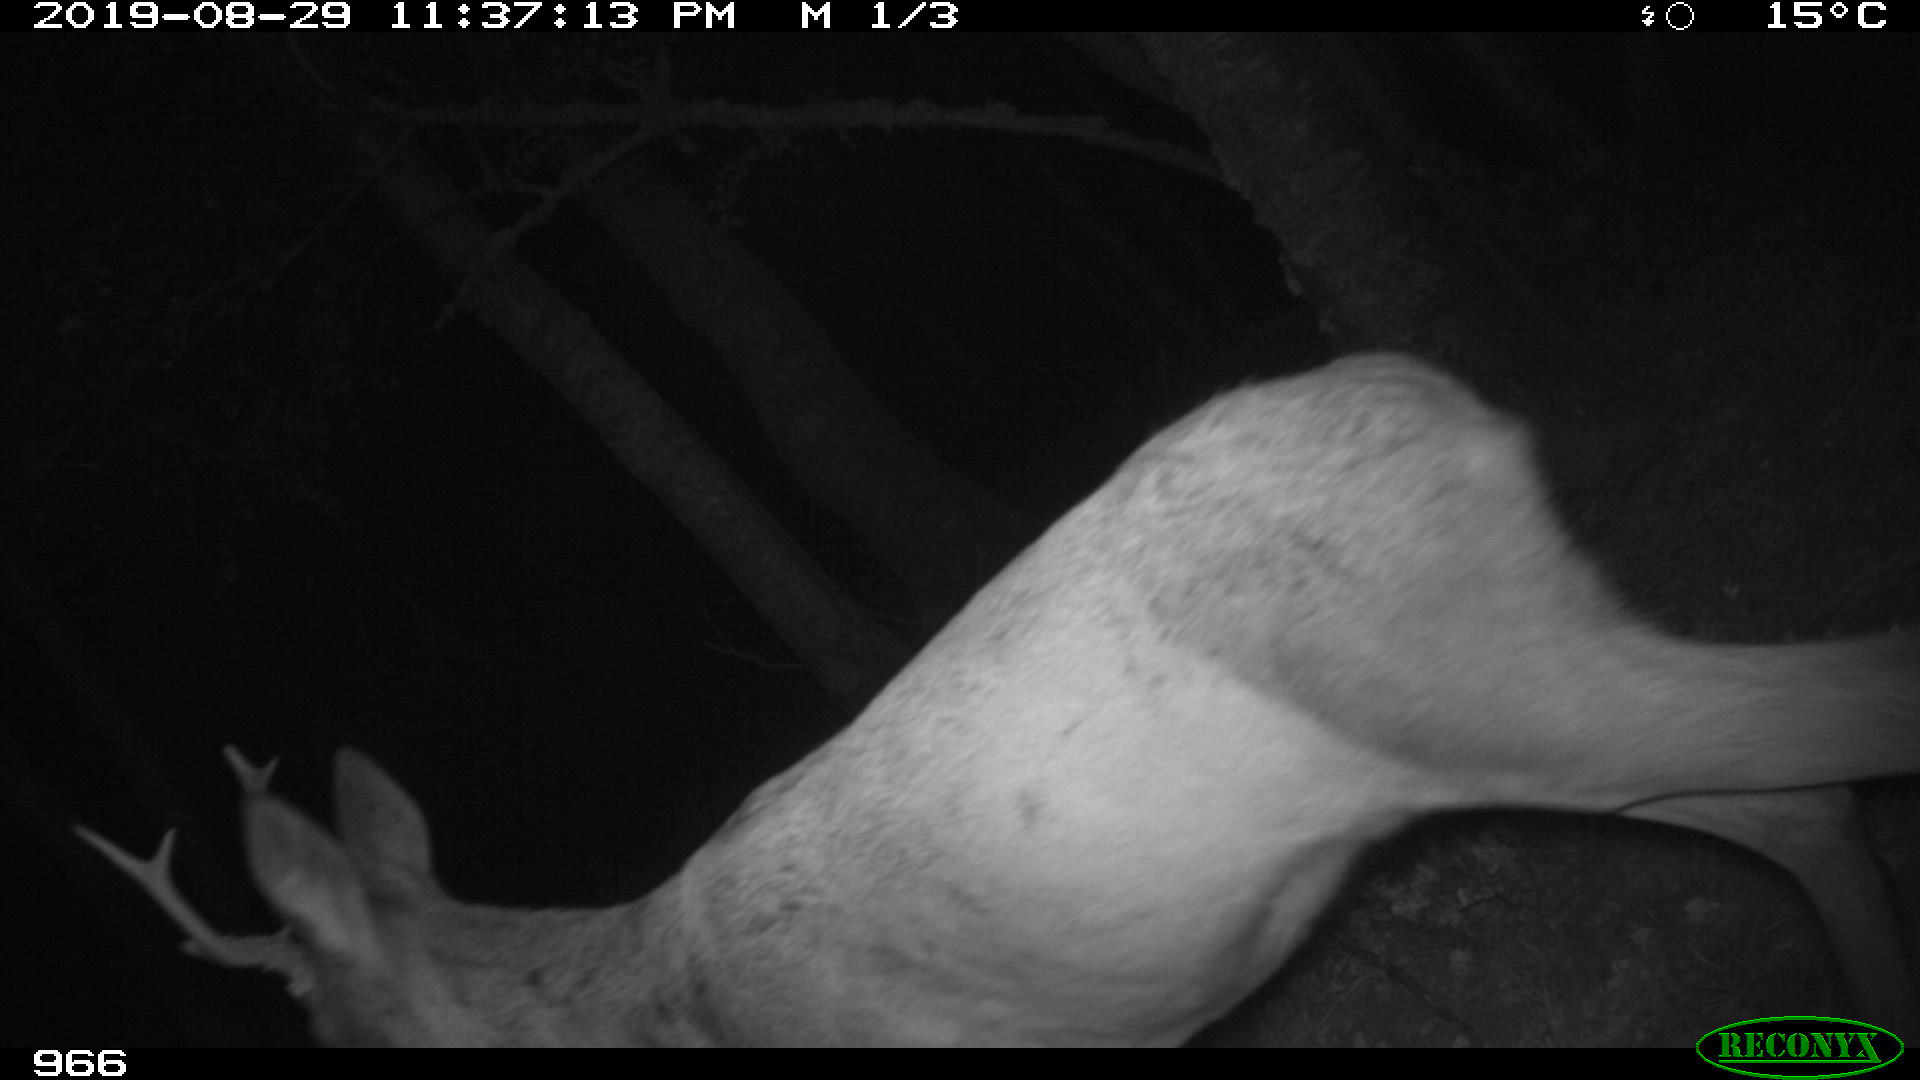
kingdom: Animalia
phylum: Chordata
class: Mammalia
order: Artiodactyla
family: Cervidae
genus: Capreolus
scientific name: Capreolus capreolus
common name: Western roe deer
